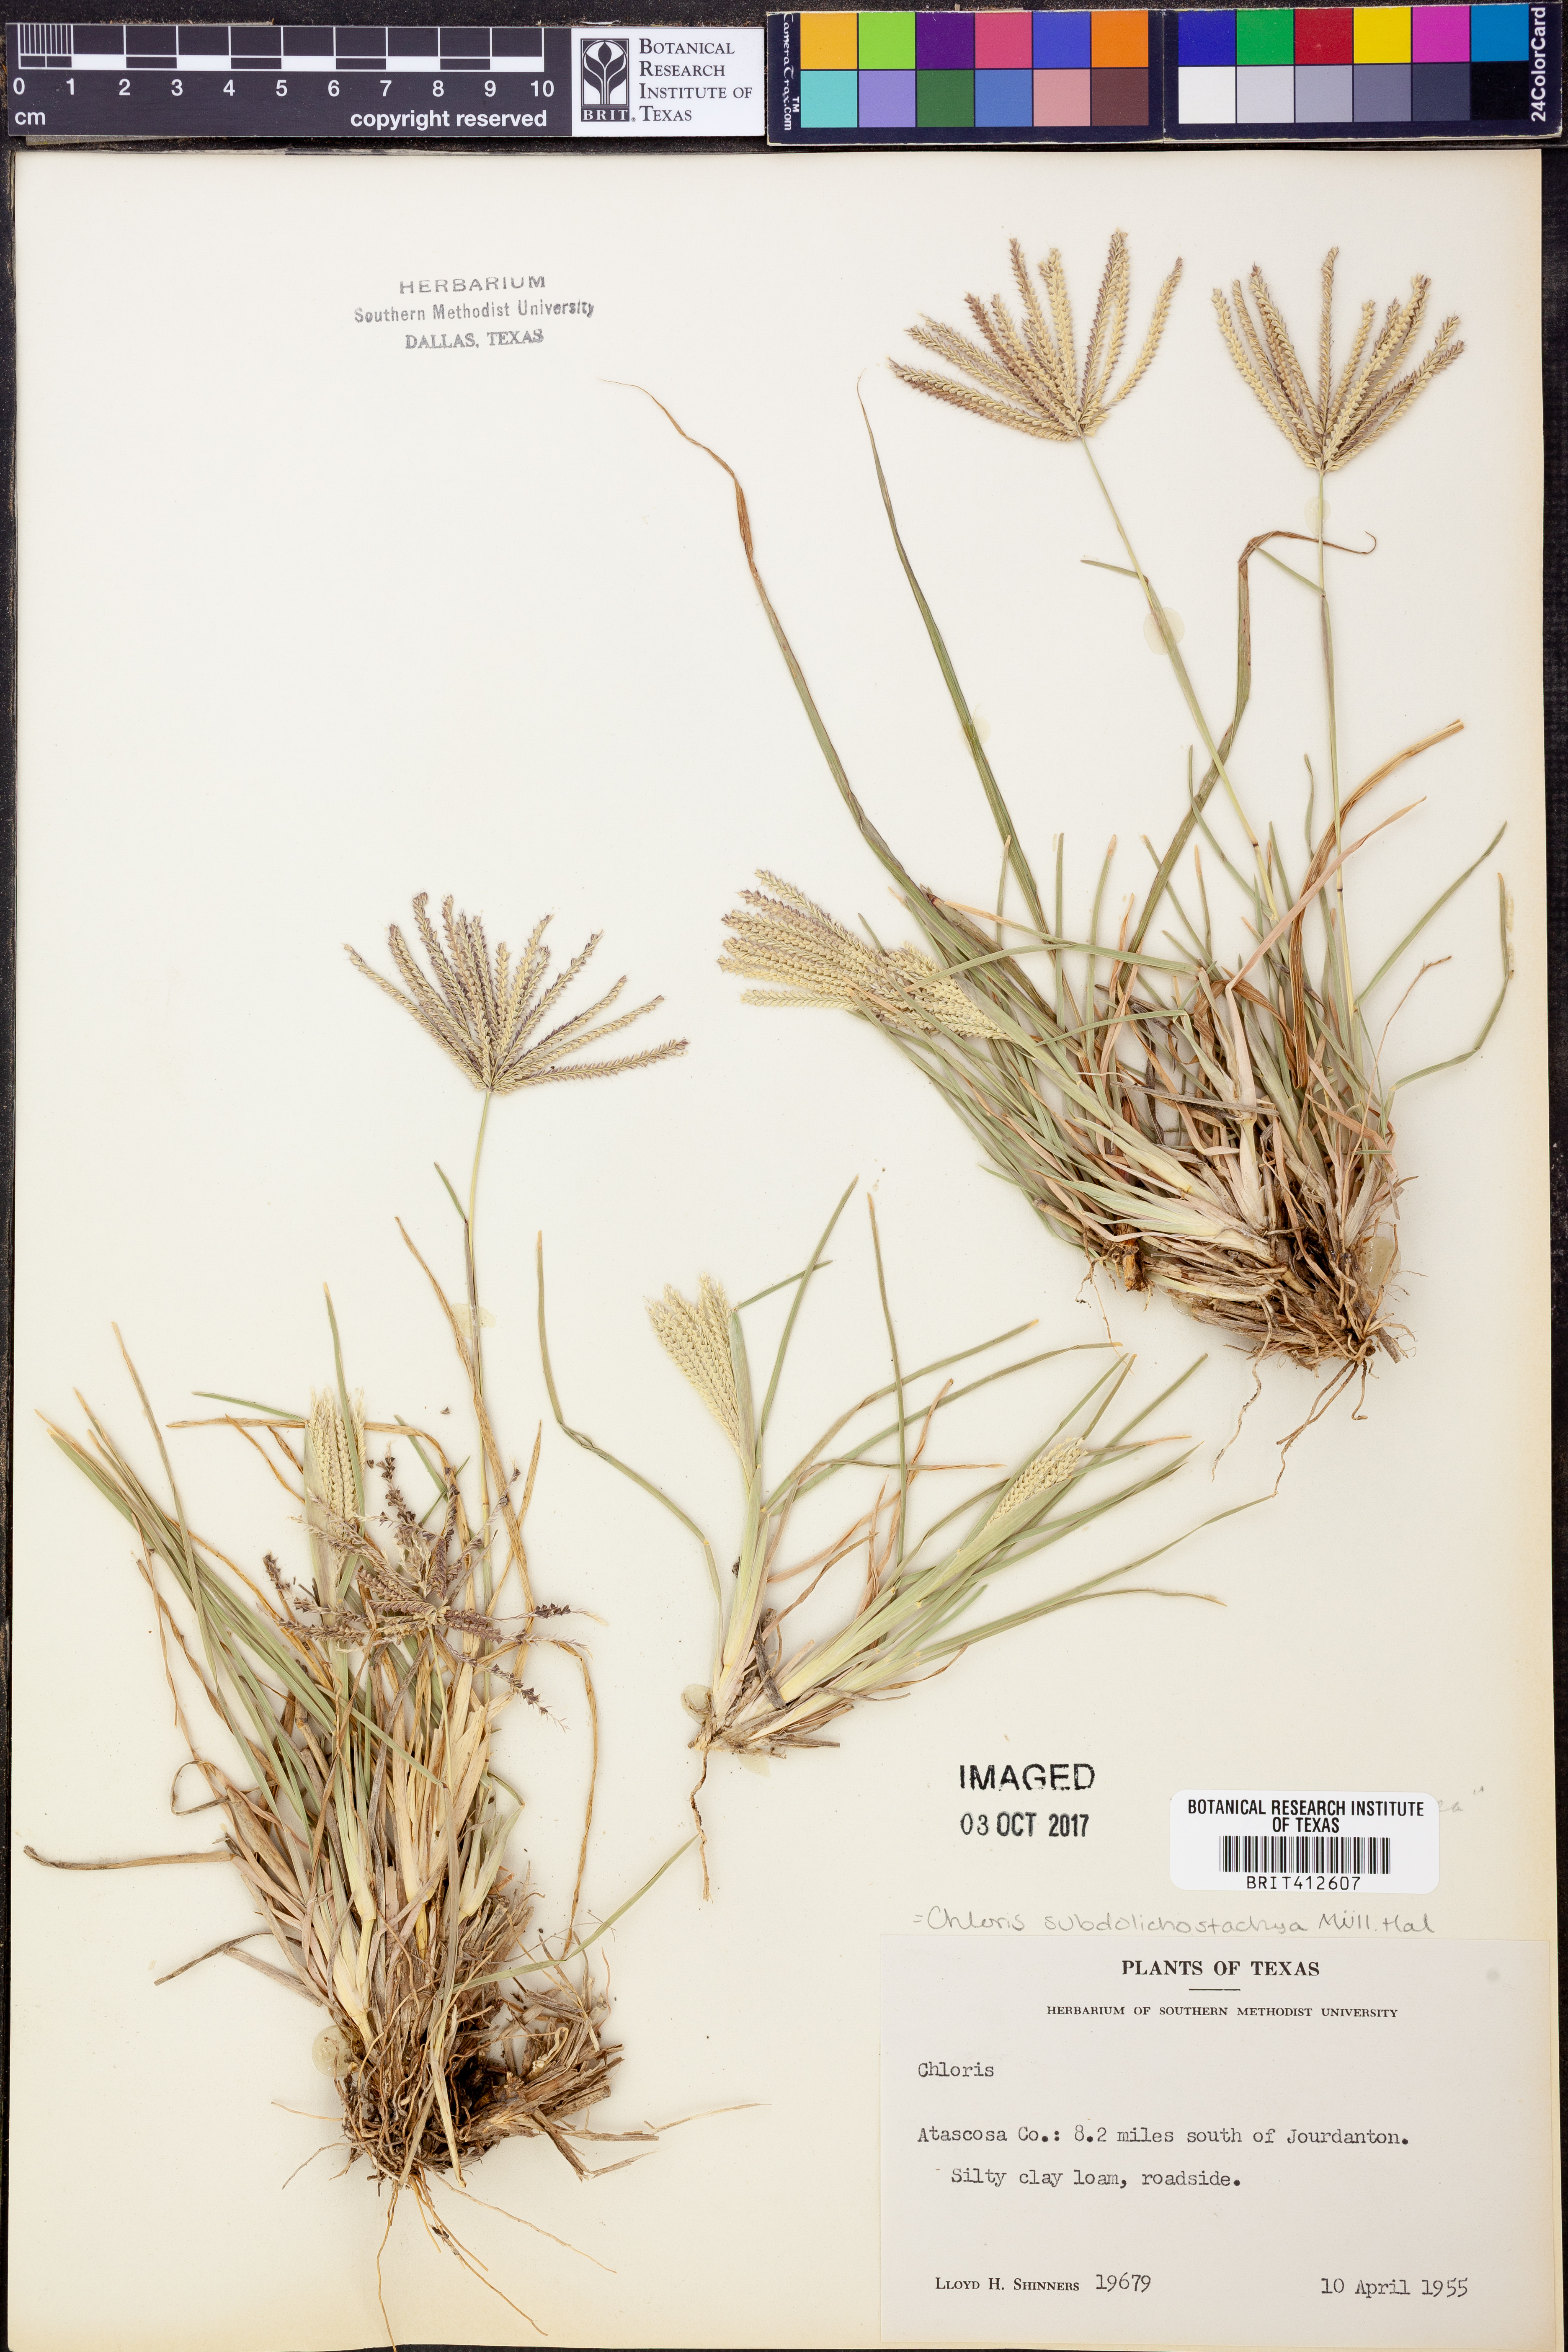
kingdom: Plantae
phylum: Tracheophyta
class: Liliopsida
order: Poales
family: Poaceae
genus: Chloris
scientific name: Chloris subdolichostachya
